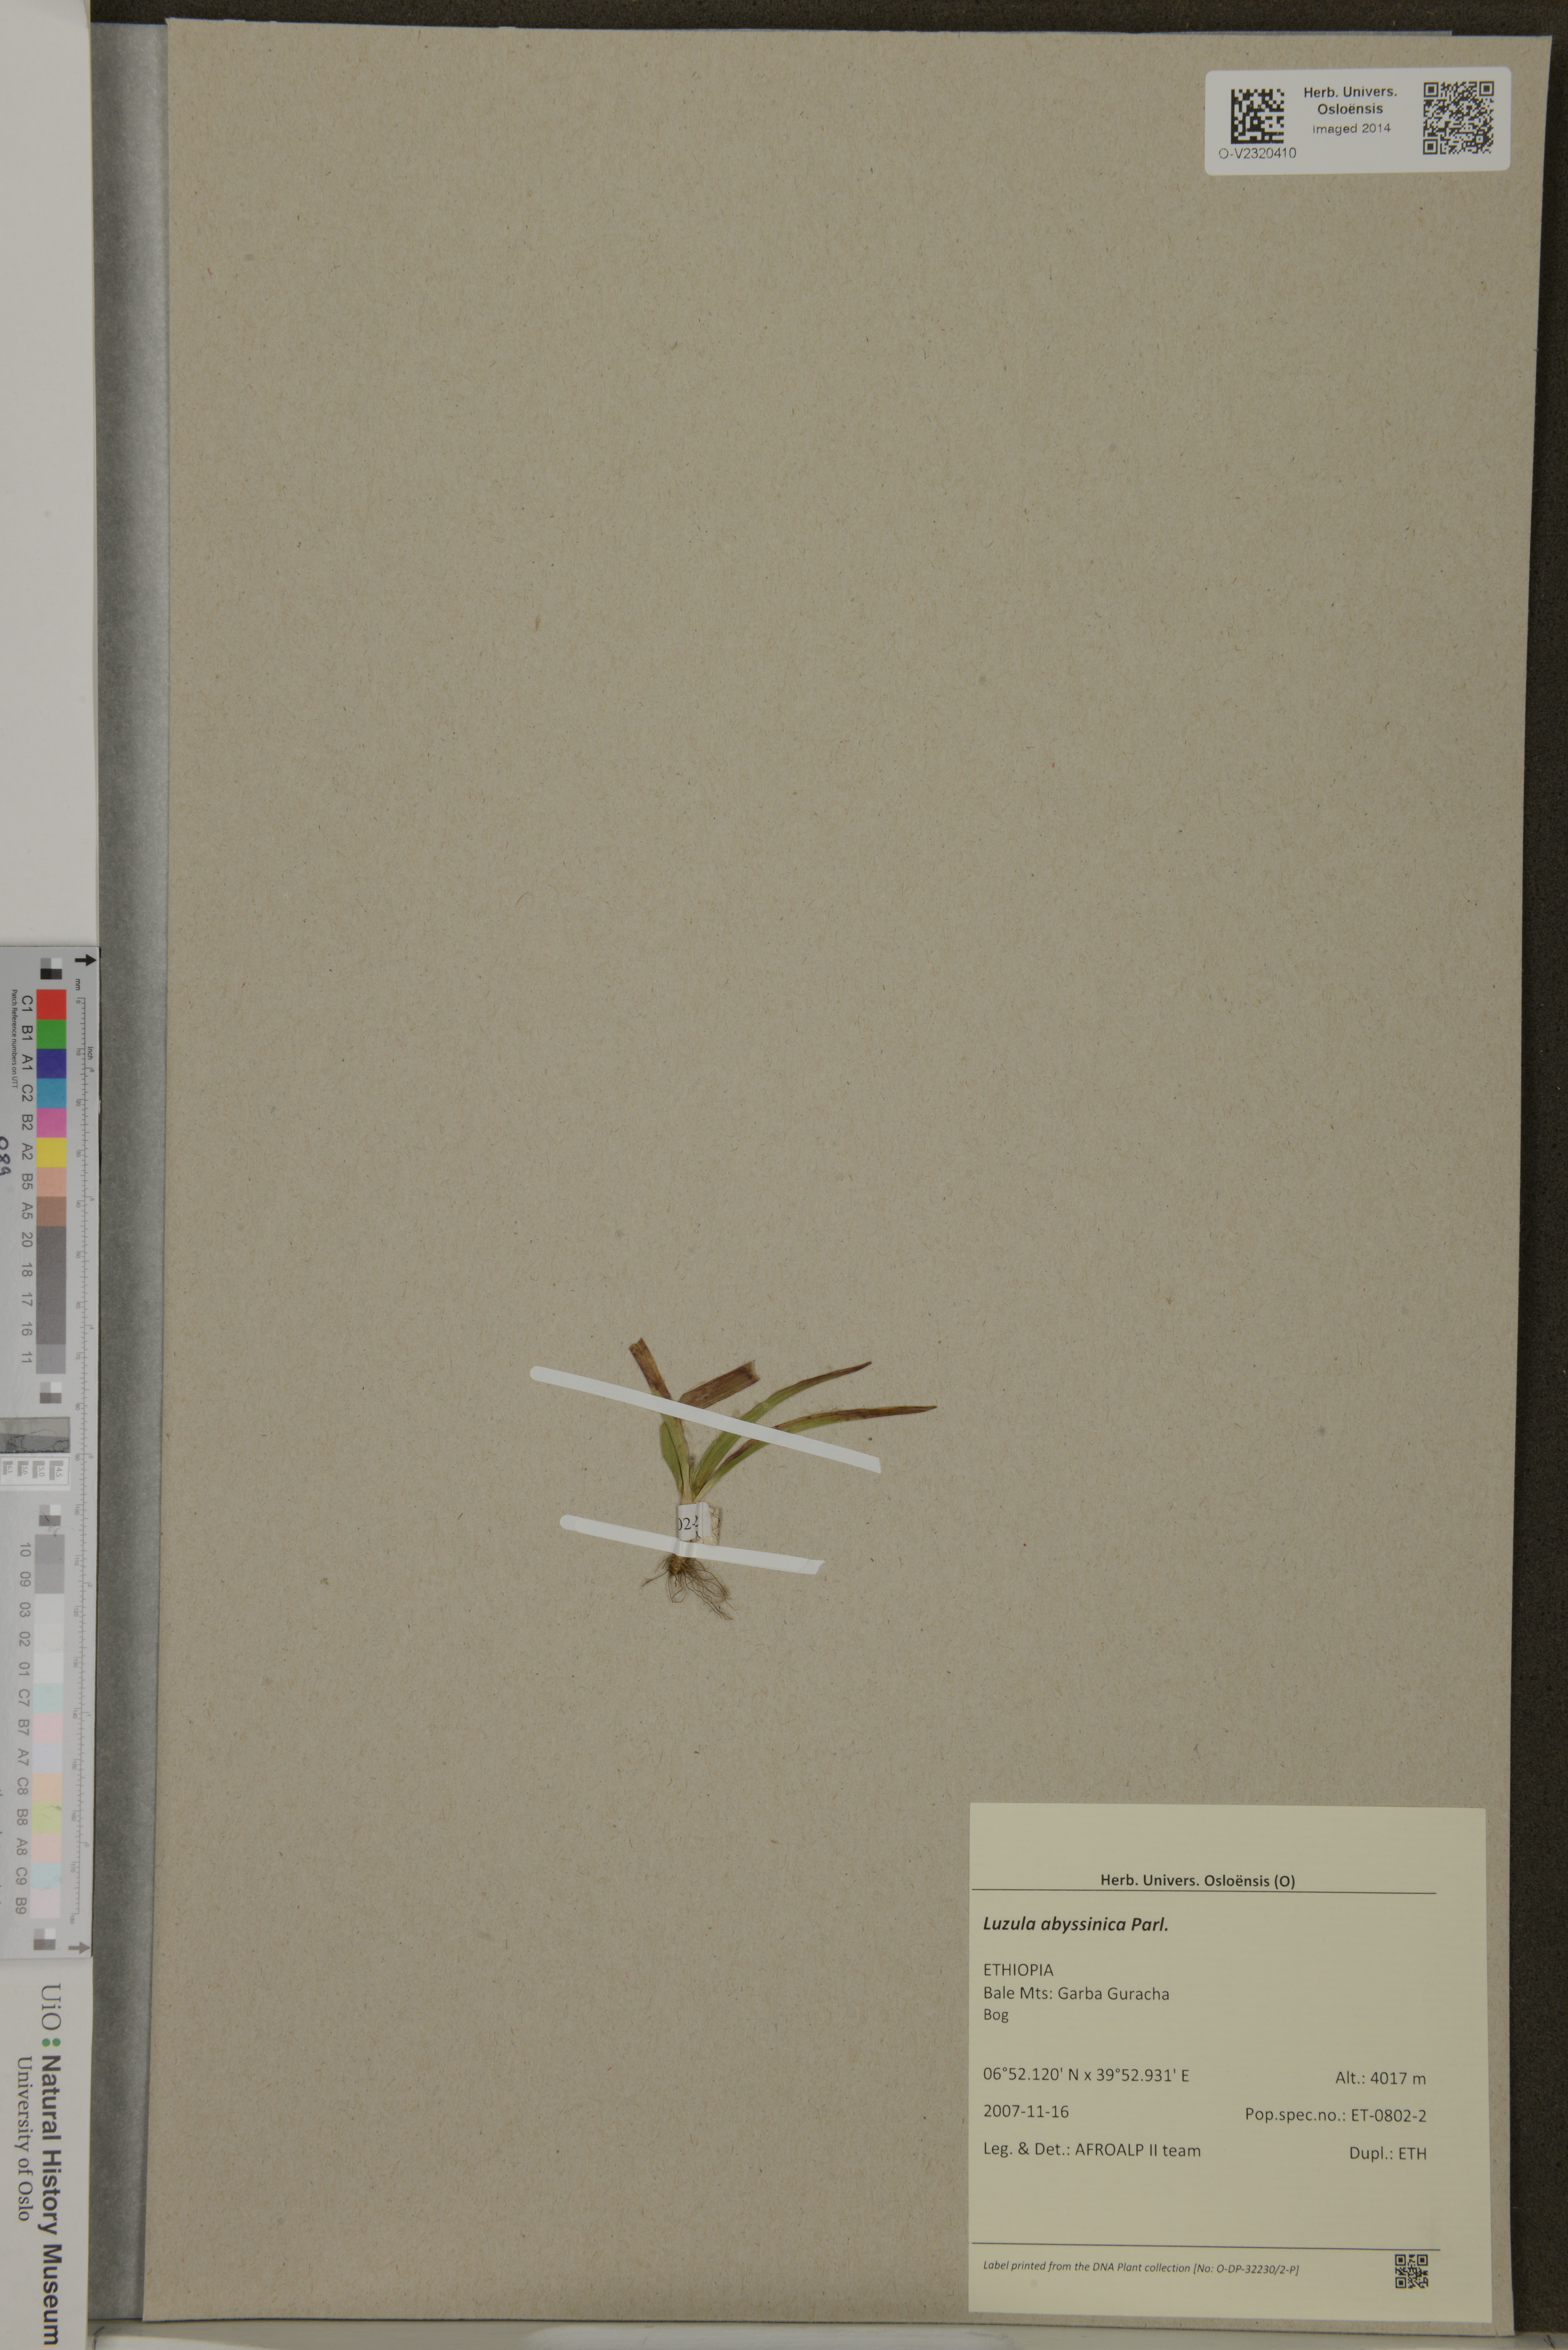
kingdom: Plantae
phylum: Tracheophyta
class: Liliopsida
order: Poales
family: Juncaceae
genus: Luzula
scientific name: Luzula abyssinica
